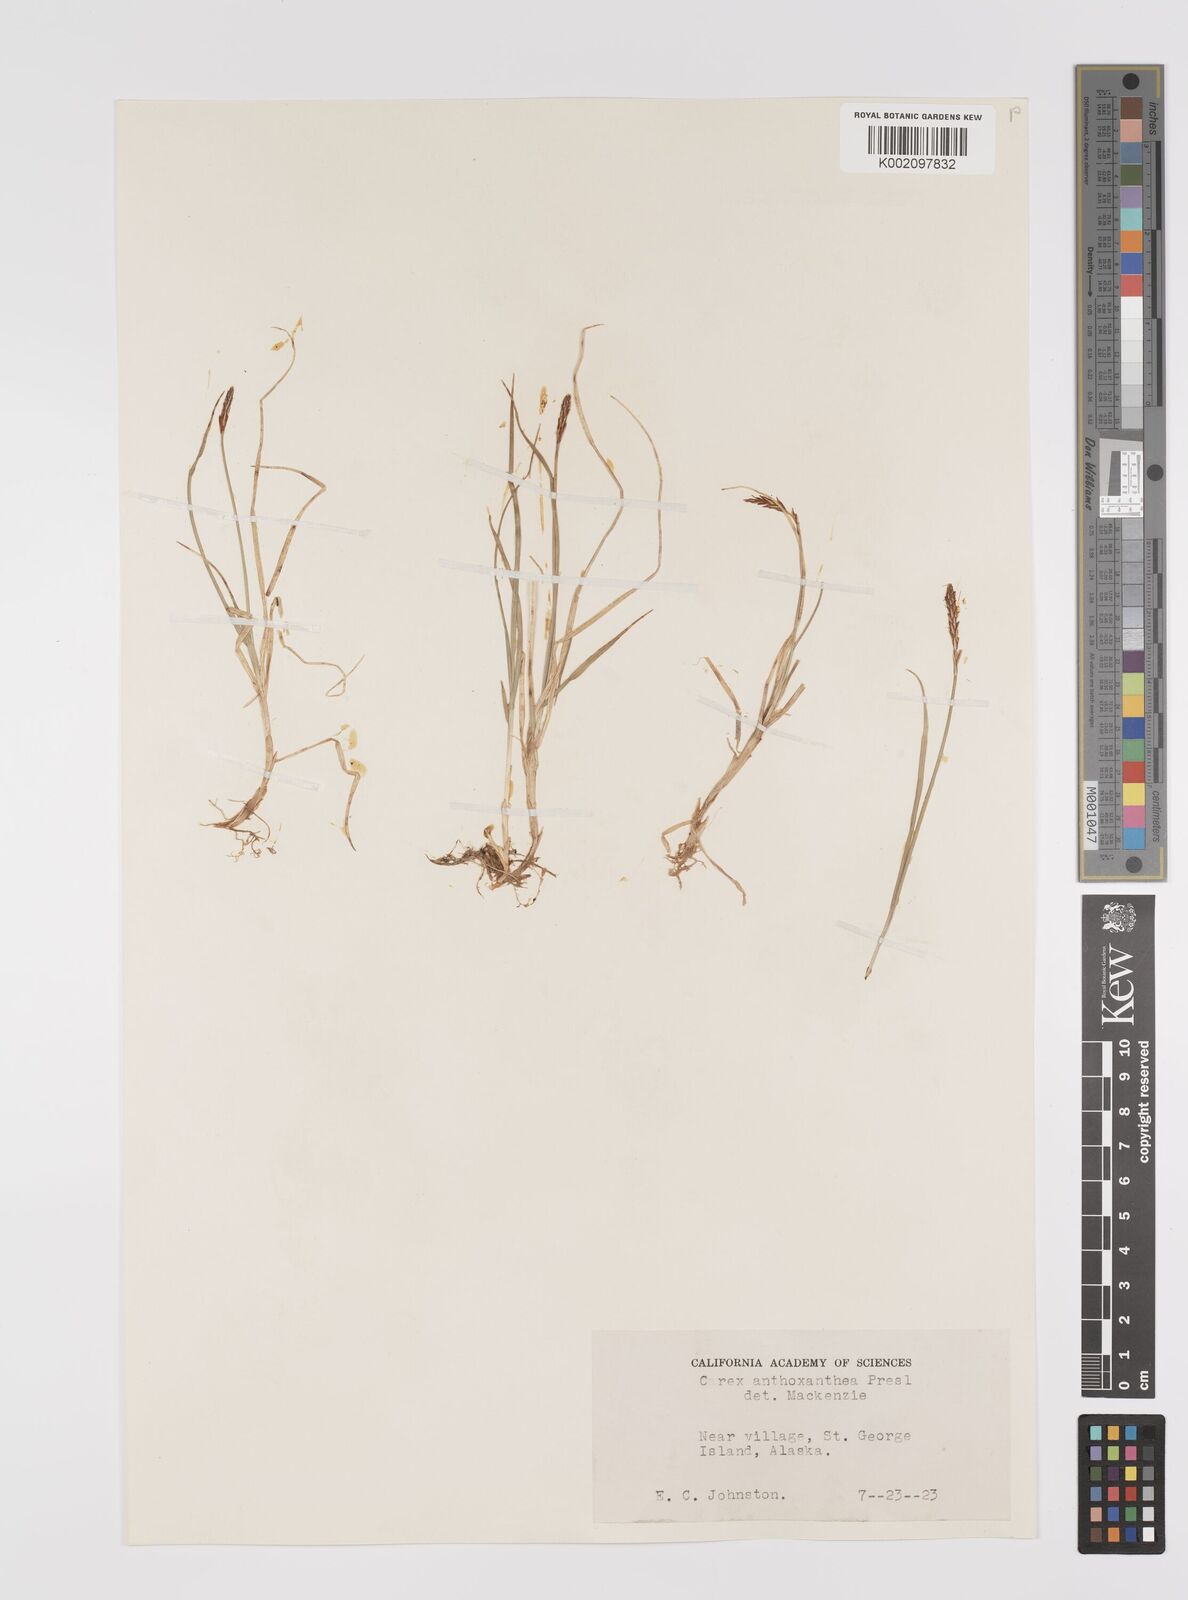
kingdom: Plantae
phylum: Tracheophyta
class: Liliopsida
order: Poales
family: Cyperaceae
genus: Carex
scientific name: Carex anthoxanthea
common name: Grassy-slope arctic sedge
